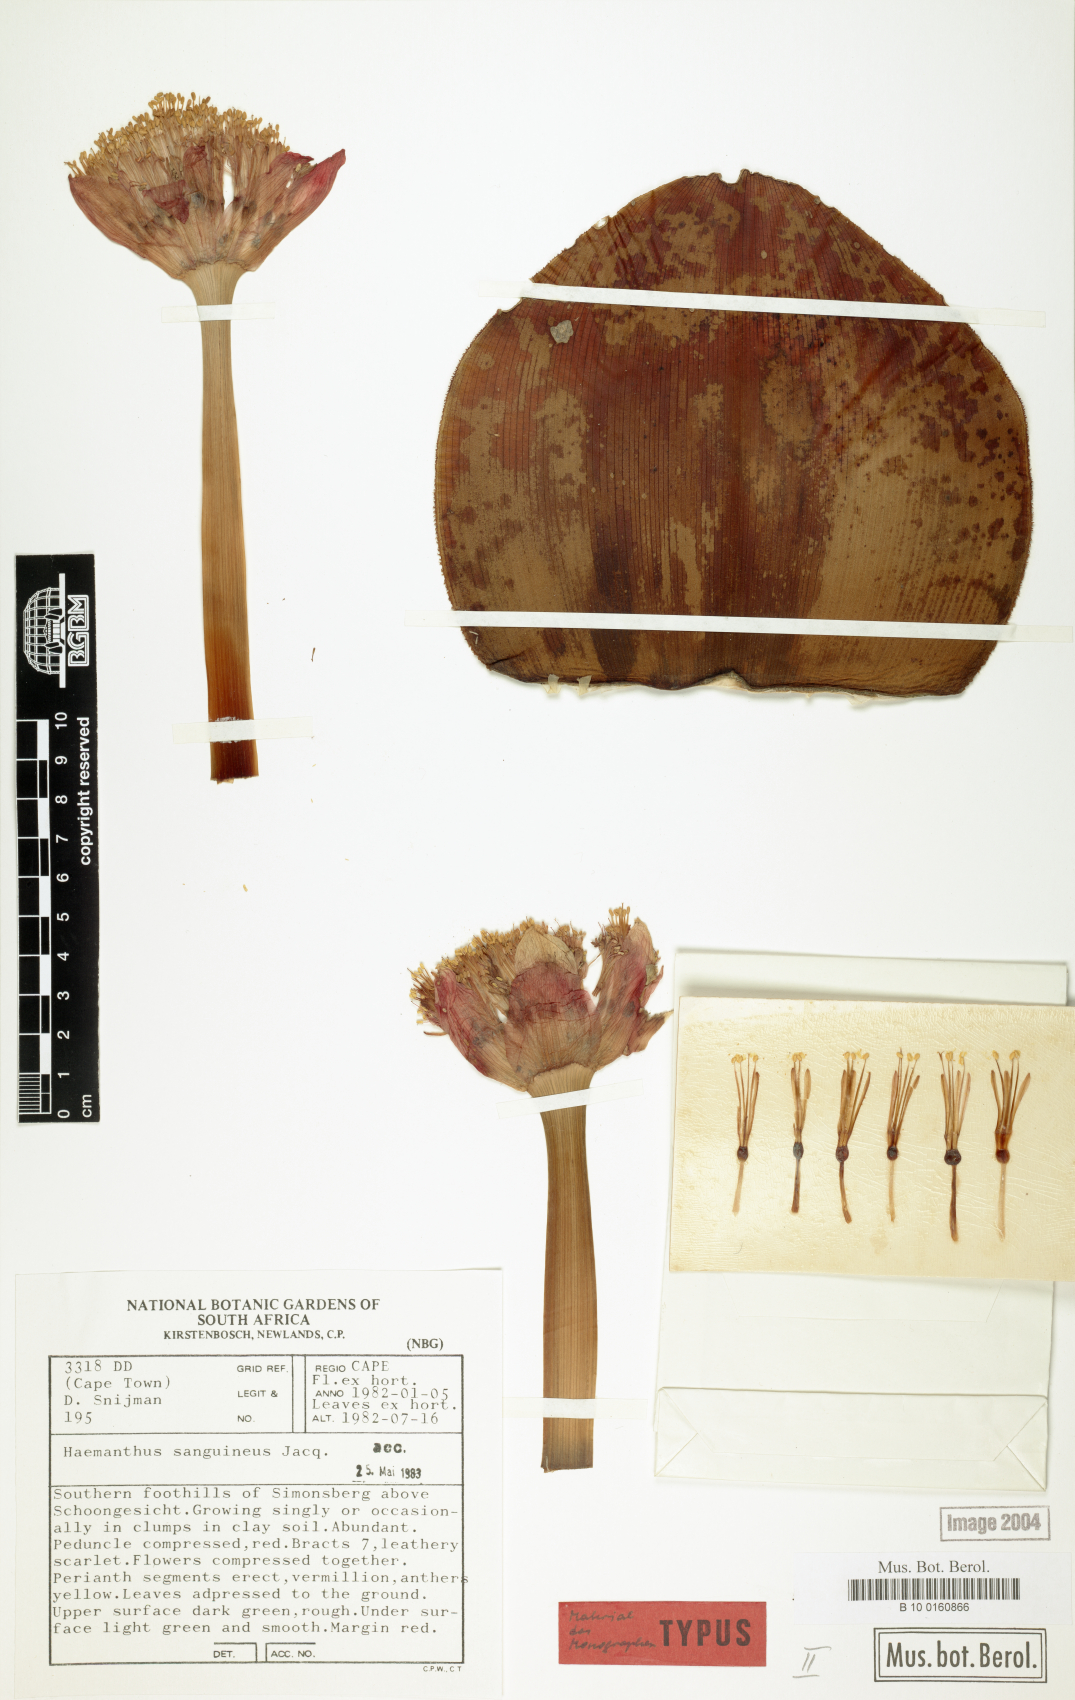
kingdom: Plantae
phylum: Tracheophyta
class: Liliopsida
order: Asparagales
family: Amaryllidaceae
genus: Haemanthus
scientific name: Haemanthus sanguineus
